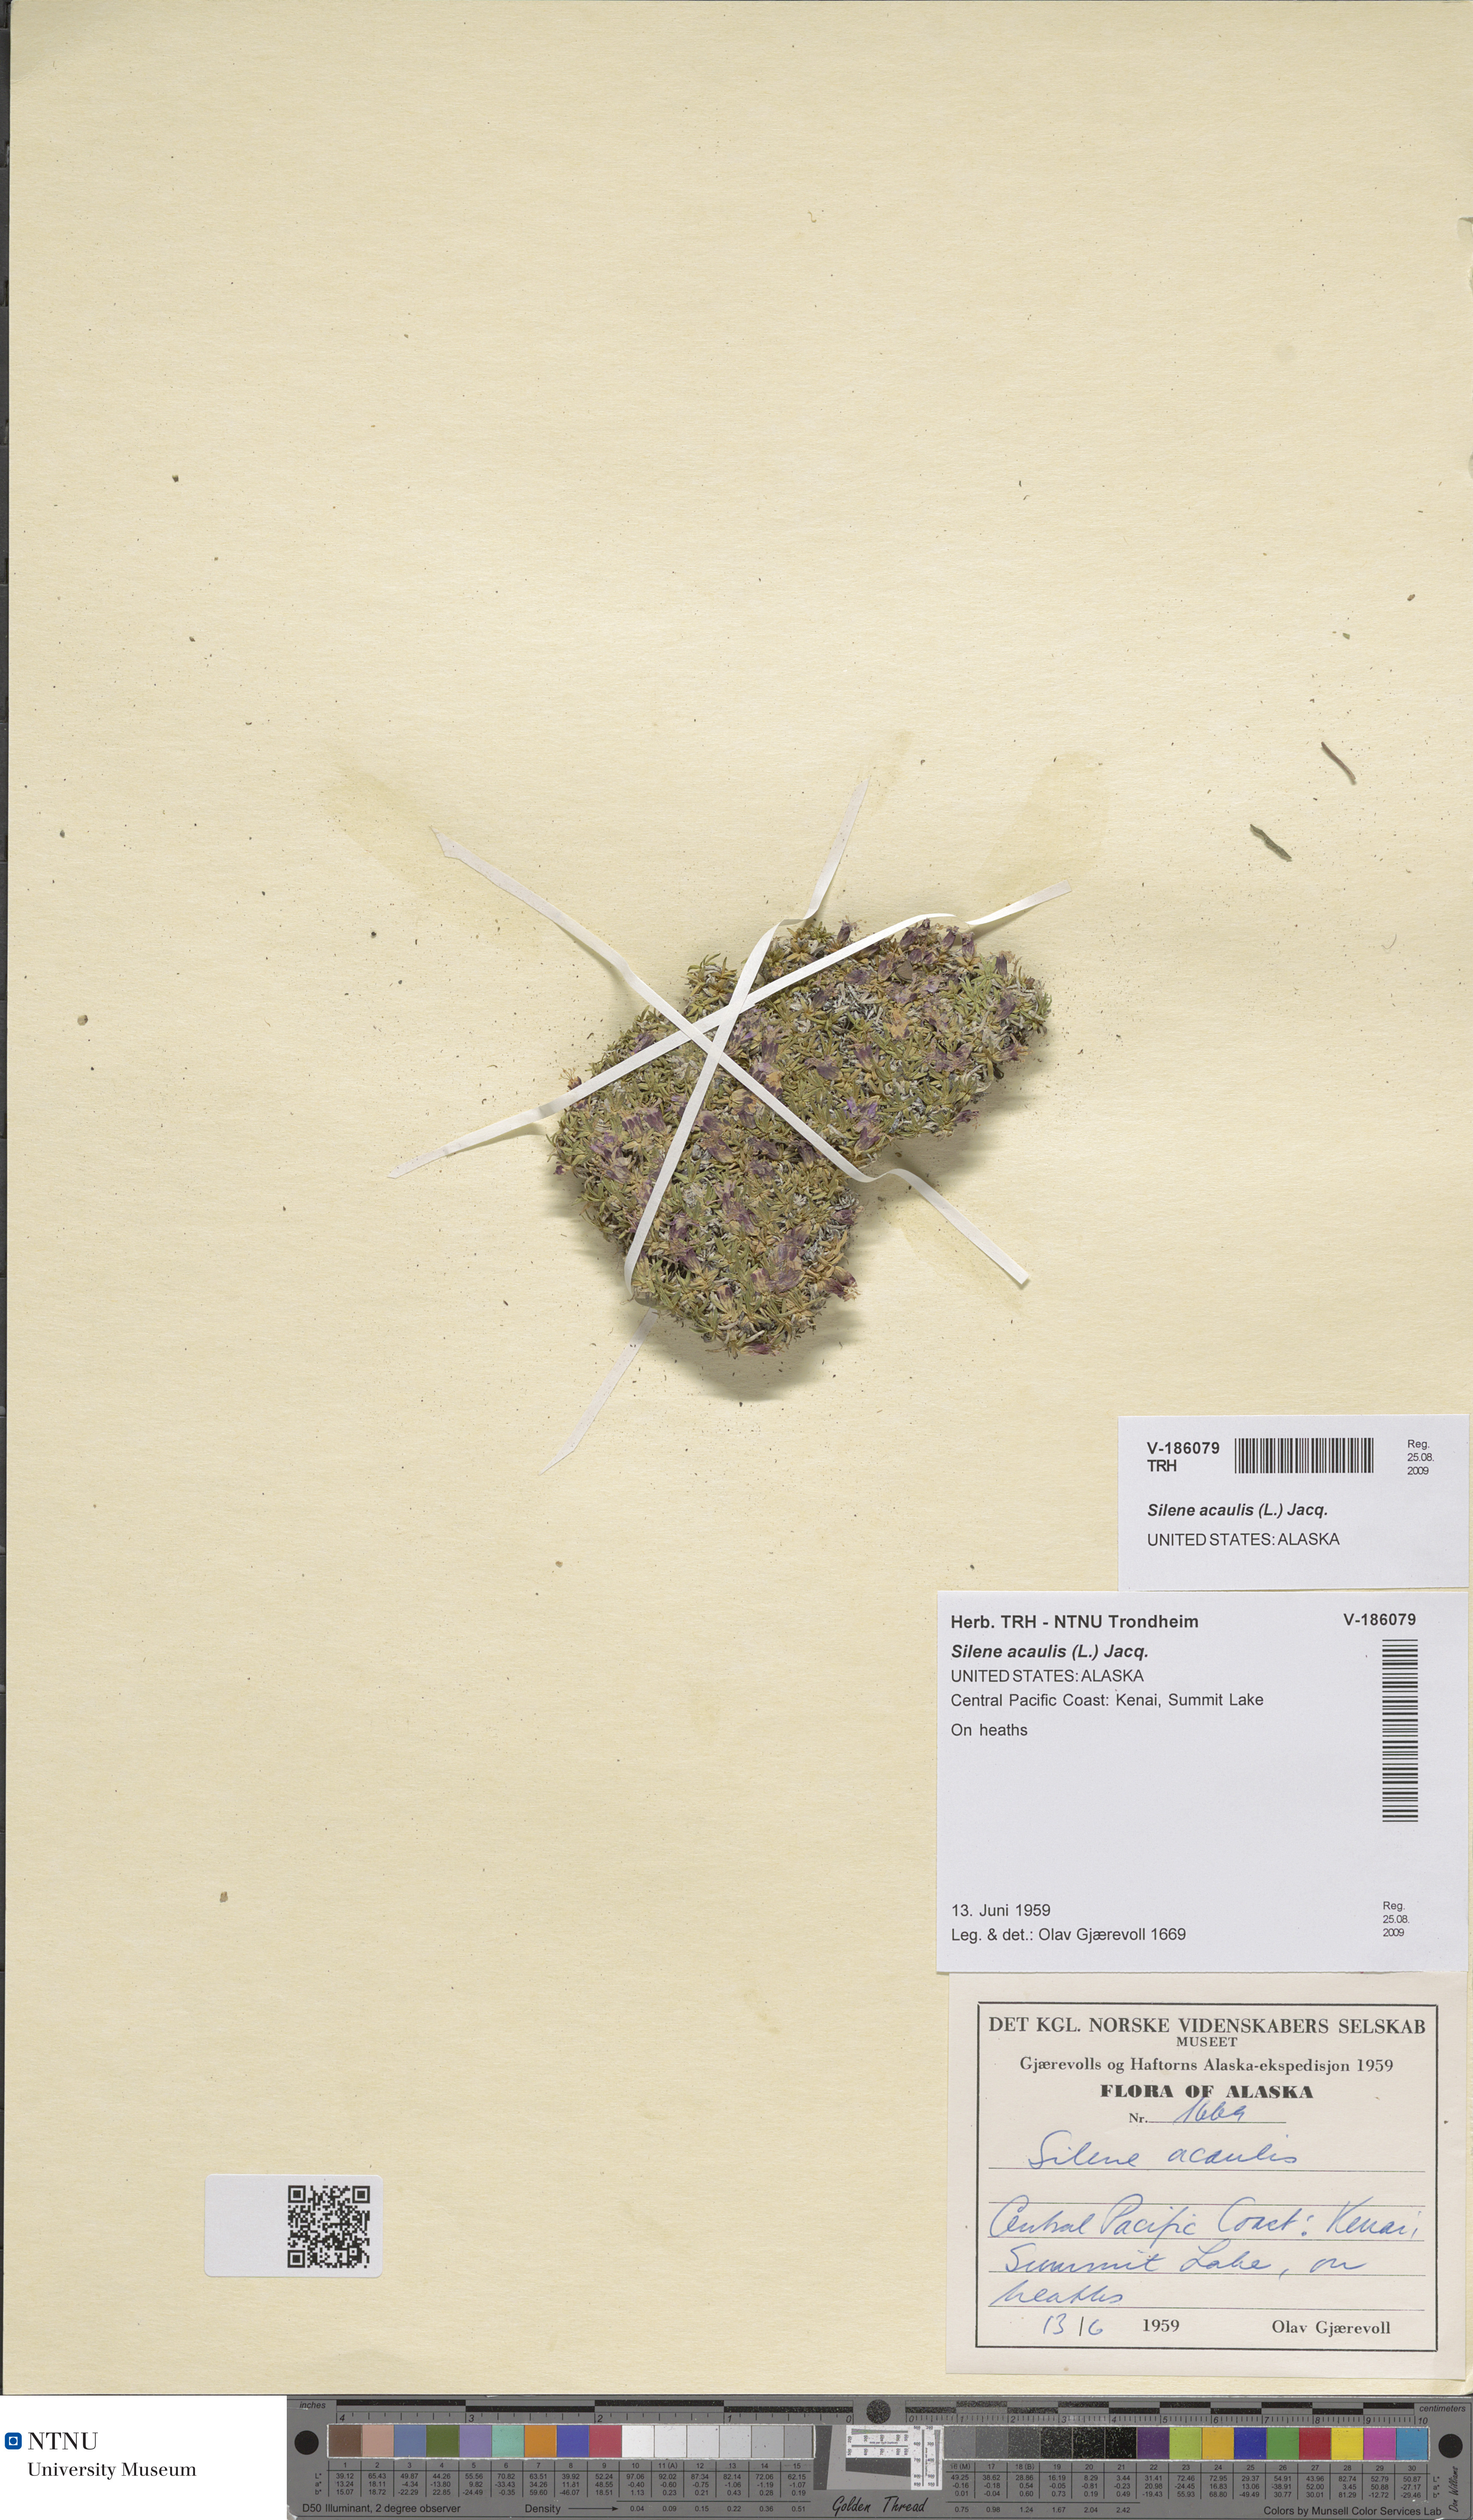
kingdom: Plantae
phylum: Tracheophyta
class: Magnoliopsida
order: Caryophyllales
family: Caryophyllaceae
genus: Silene
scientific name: Silene acaulis
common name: Moss campion
